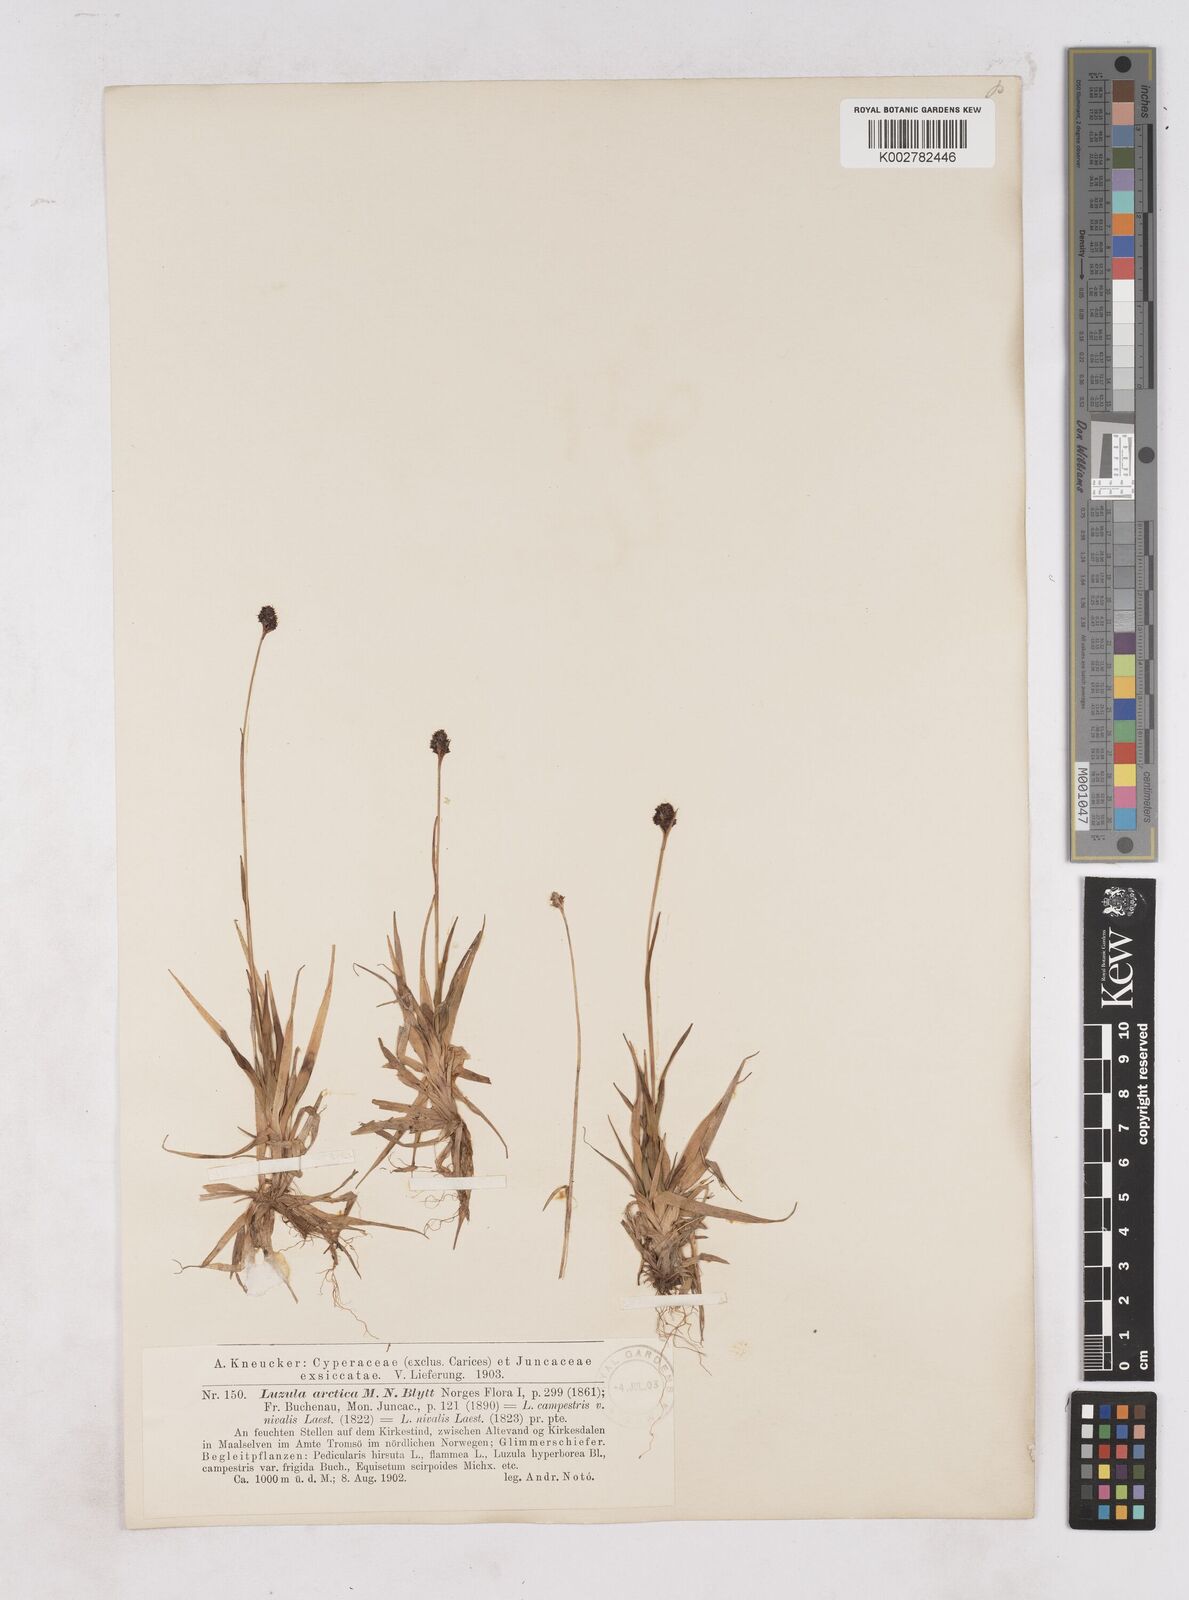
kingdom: Plantae
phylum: Tracheophyta
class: Liliopsida
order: Poales
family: Juncaceae
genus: Luzula
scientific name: Luzula nivalis
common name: Arctic woodrush
